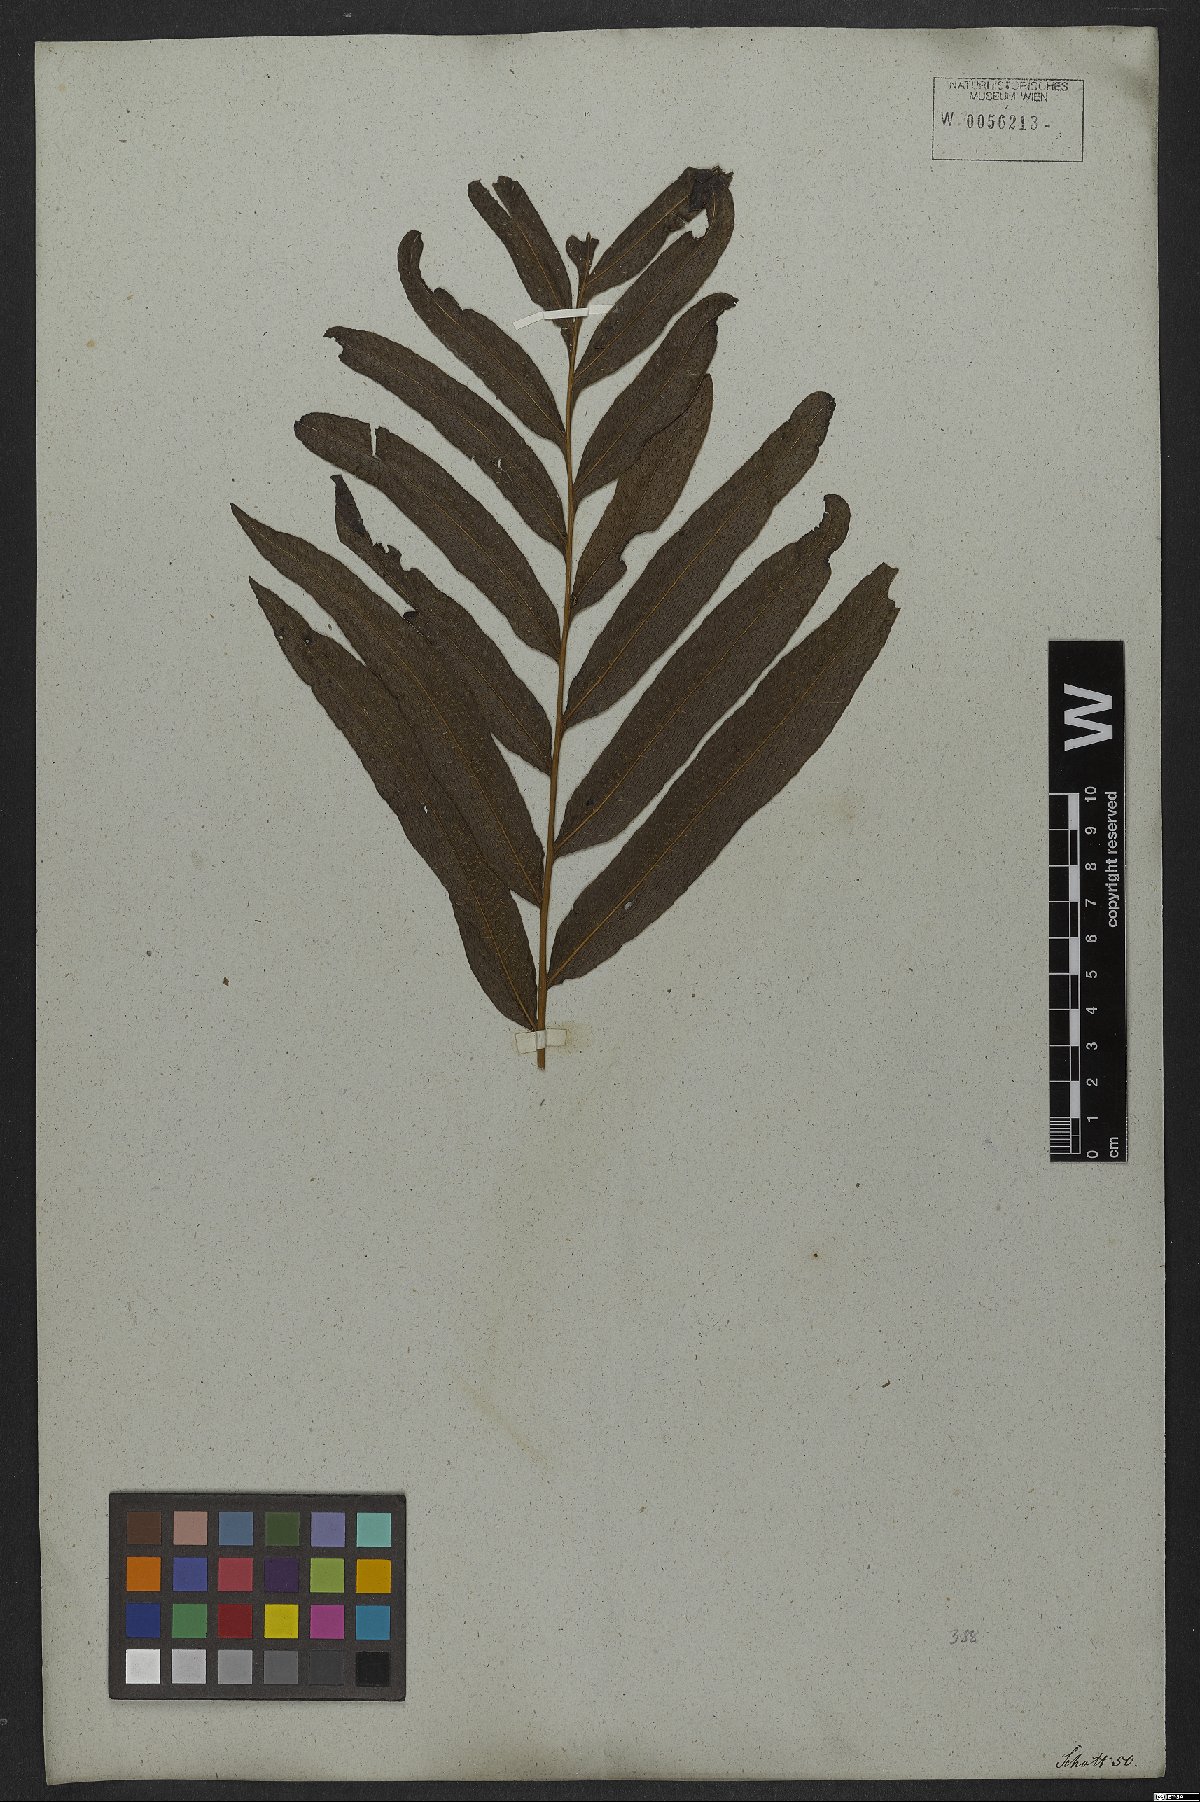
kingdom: Plantae
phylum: Tracheophyta
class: Polypodiopsida
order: Polypodiales
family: Polypodiaceae
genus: Campyloneurum
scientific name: Campyloneurum decurrens
